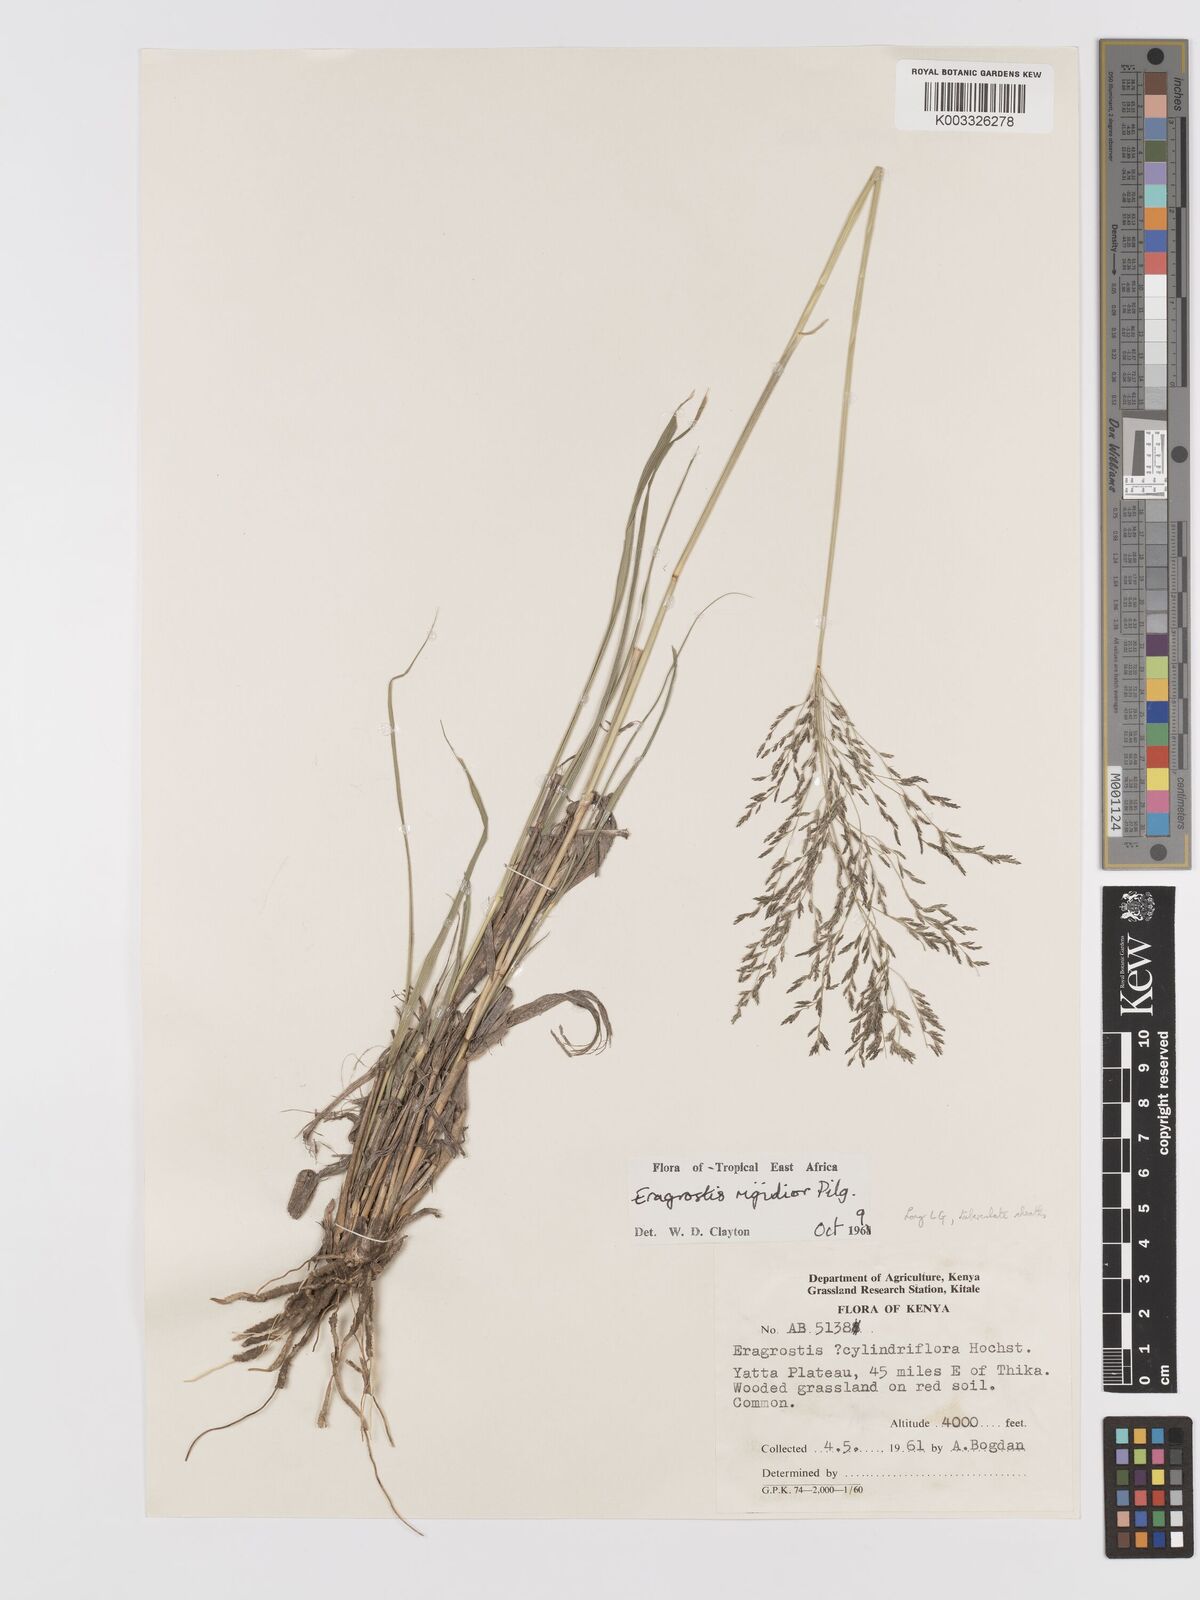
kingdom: Plantae
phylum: Tracheophyta
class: Liliopsida
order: Poales
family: Poaceae
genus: Eragrostis
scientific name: Eragrostis cylindriflora
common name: Cylinderflower lovegrass
